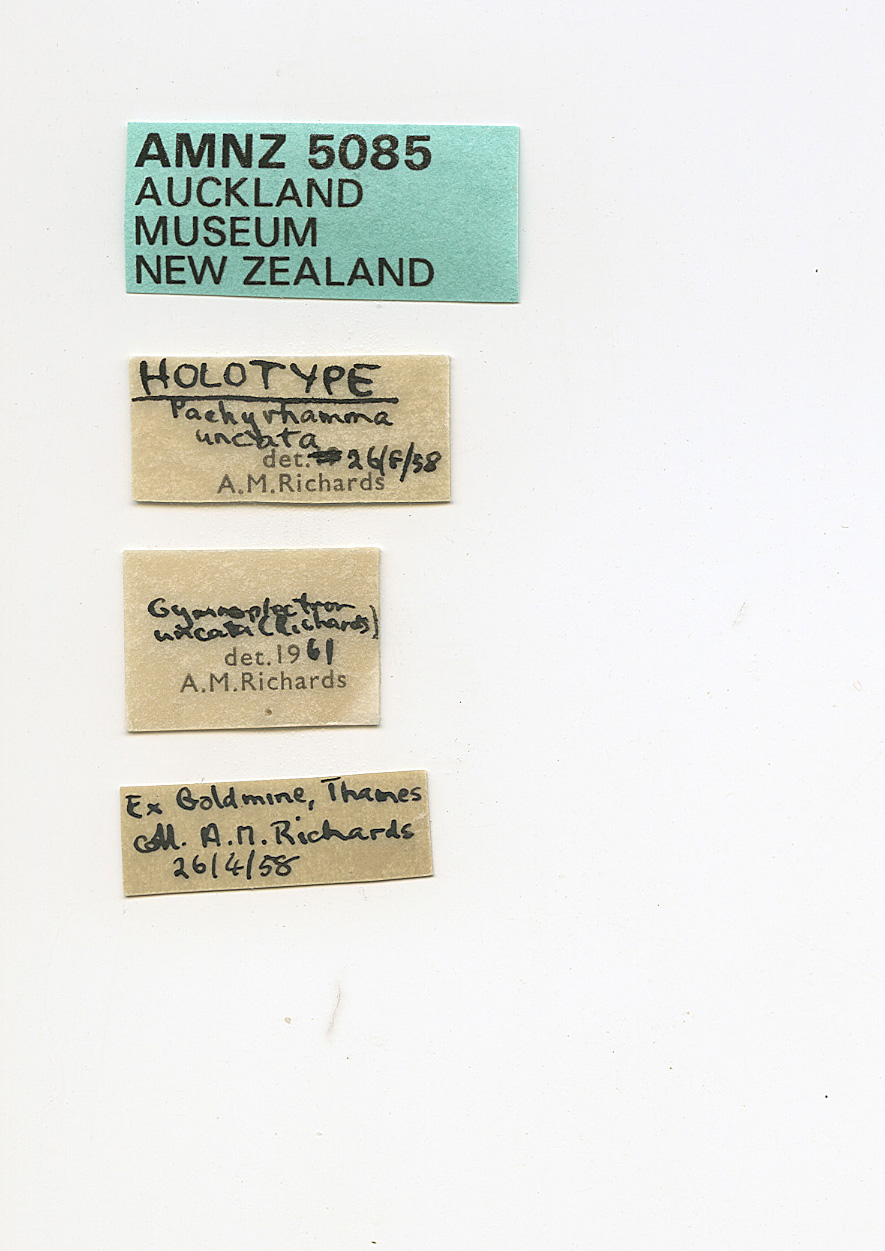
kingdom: Animalia
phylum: Arthropoda
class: Insecta
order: Orthoptera
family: Rhaphidophoridae
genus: Pachyrhamma
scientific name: Pachyrhamma uncata
